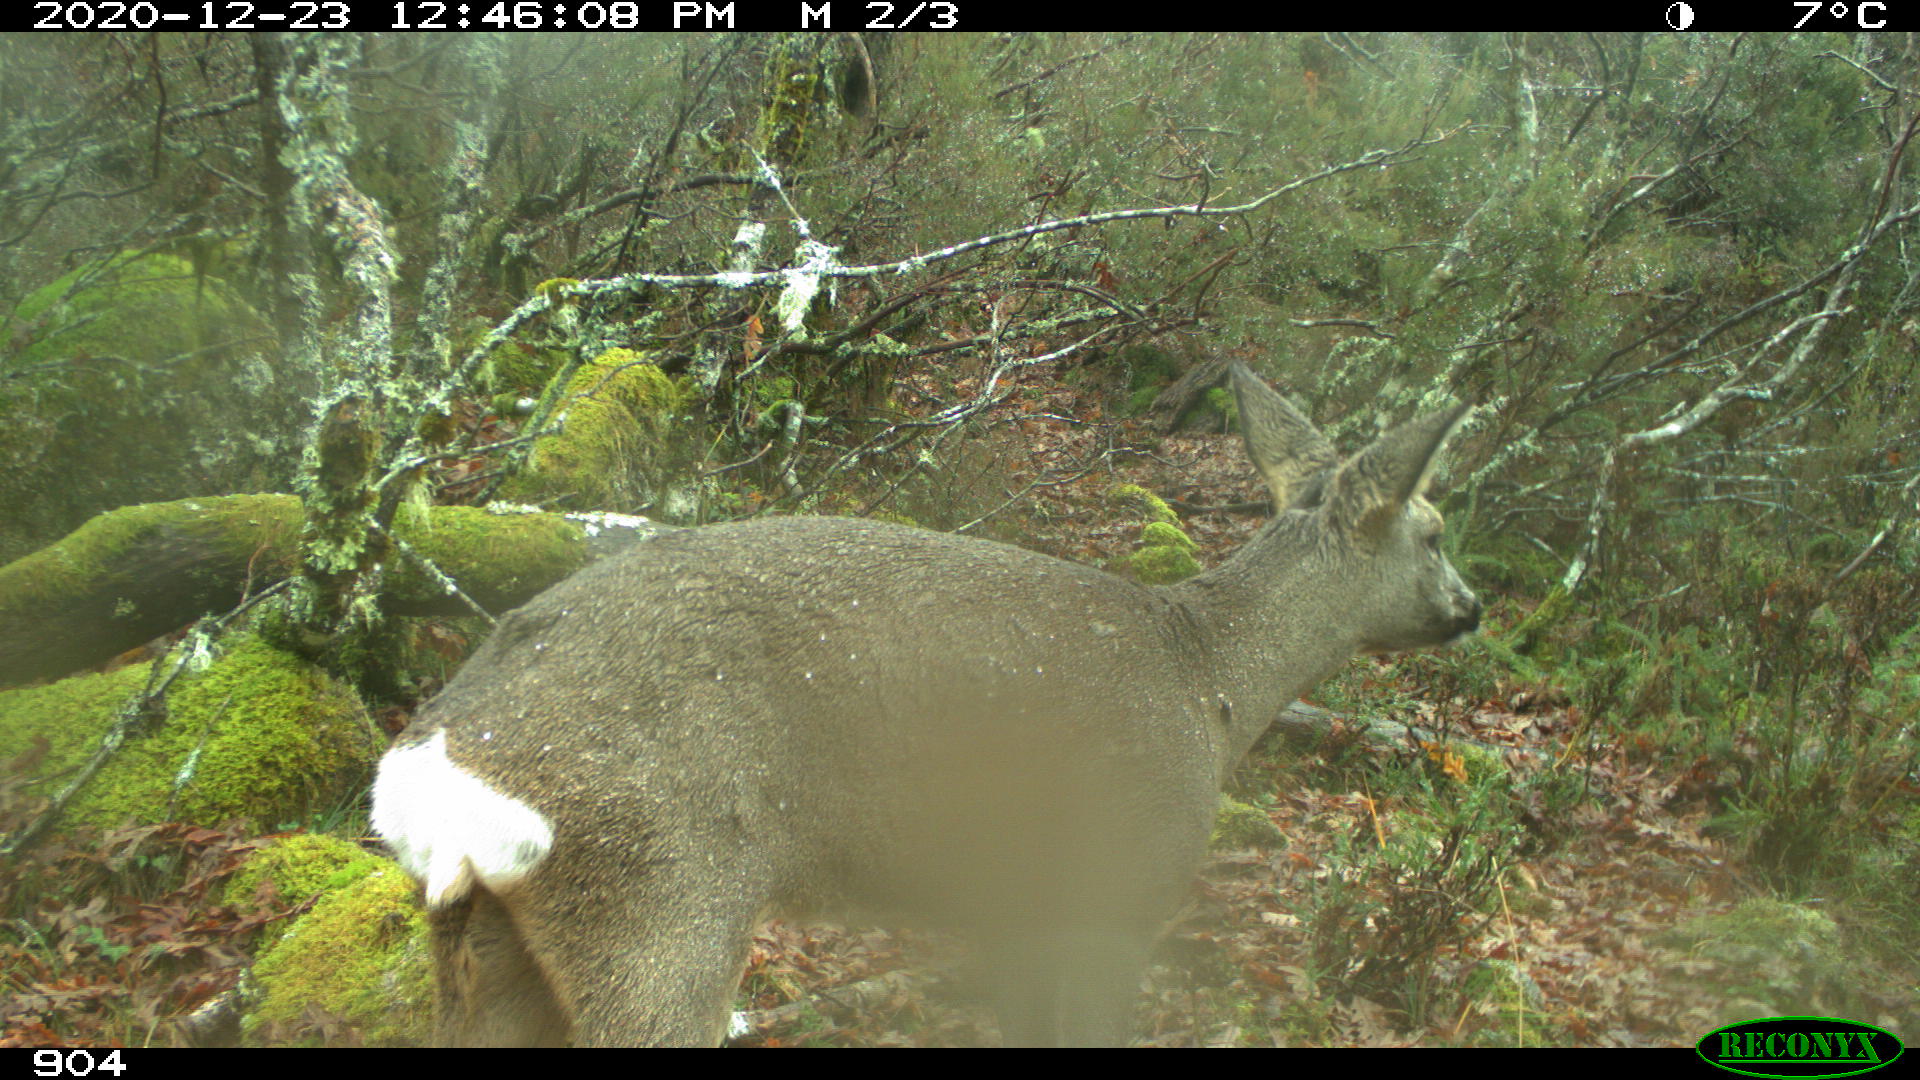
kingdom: Animalia
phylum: Chordata
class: Mammalia
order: Artiodactyla
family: Cervidae
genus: Capreolus
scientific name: Capreolus capreolus
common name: Western roe deer
